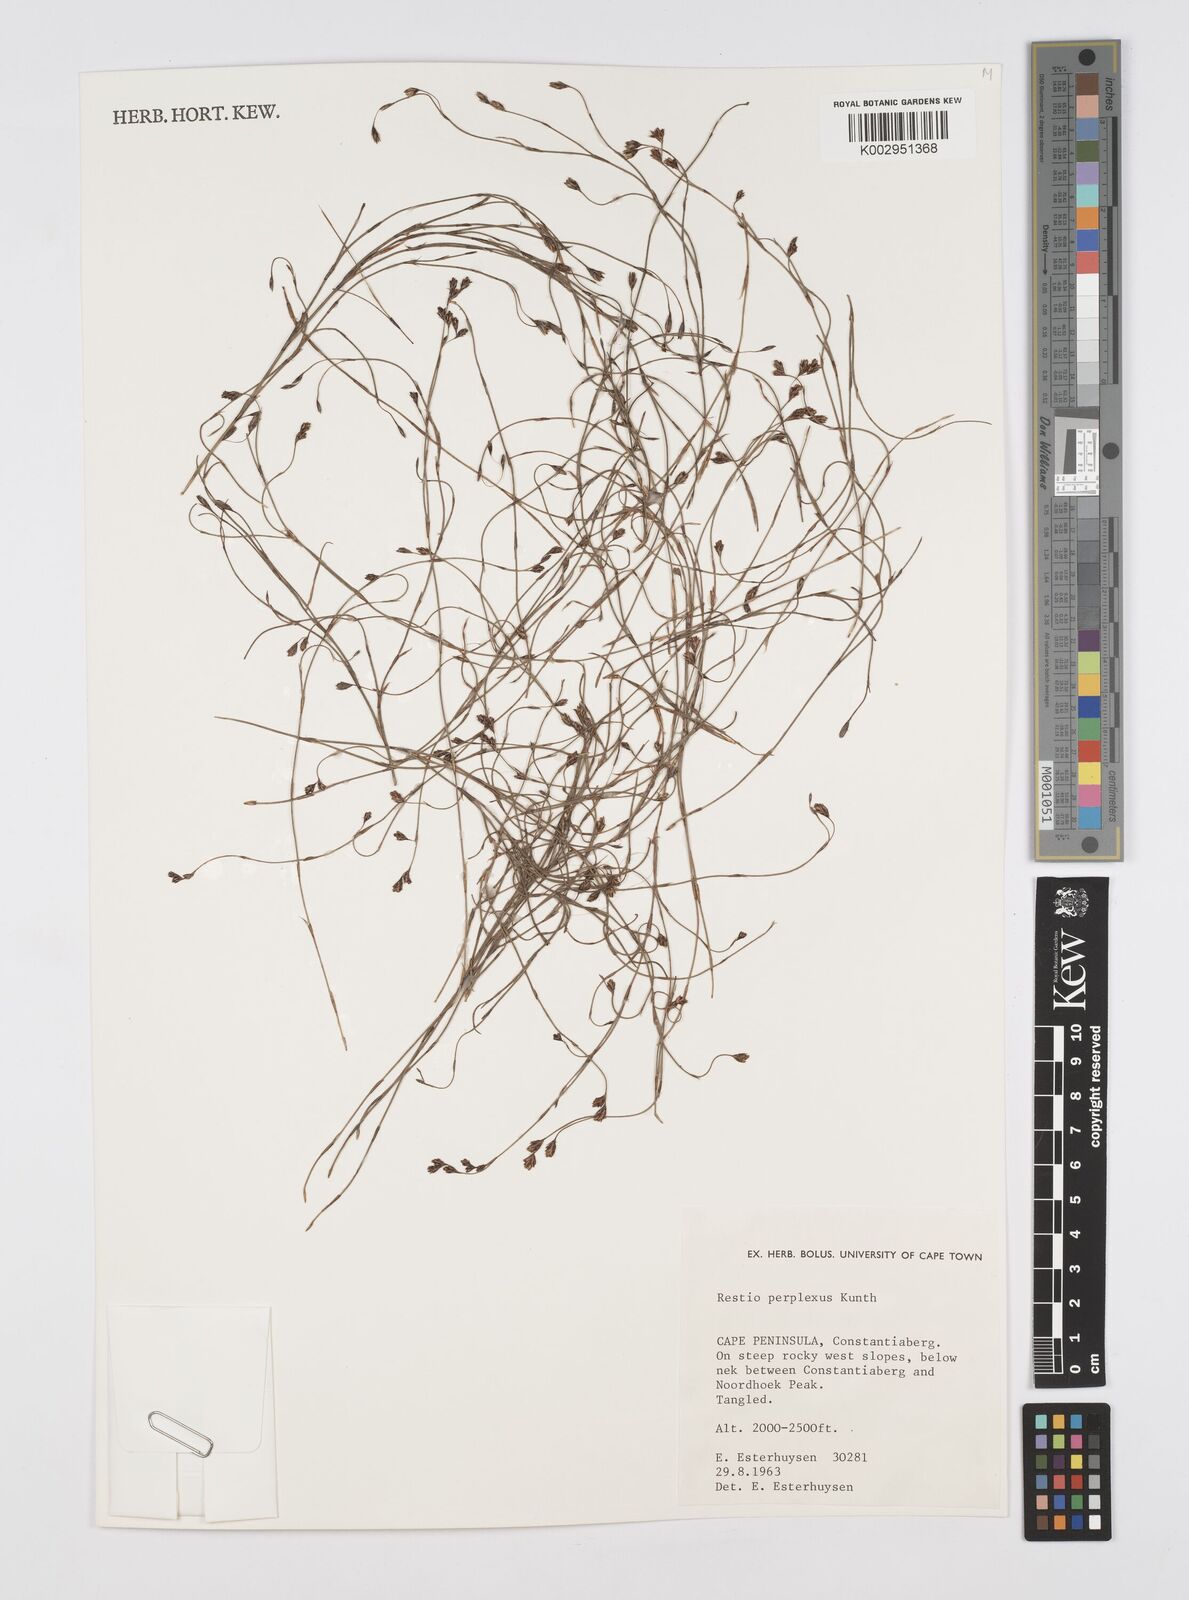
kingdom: Plantae
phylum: Tracheophyta
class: Liliopsida
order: Poales
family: Restionaceae
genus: Restio
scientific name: Restio perplexus
